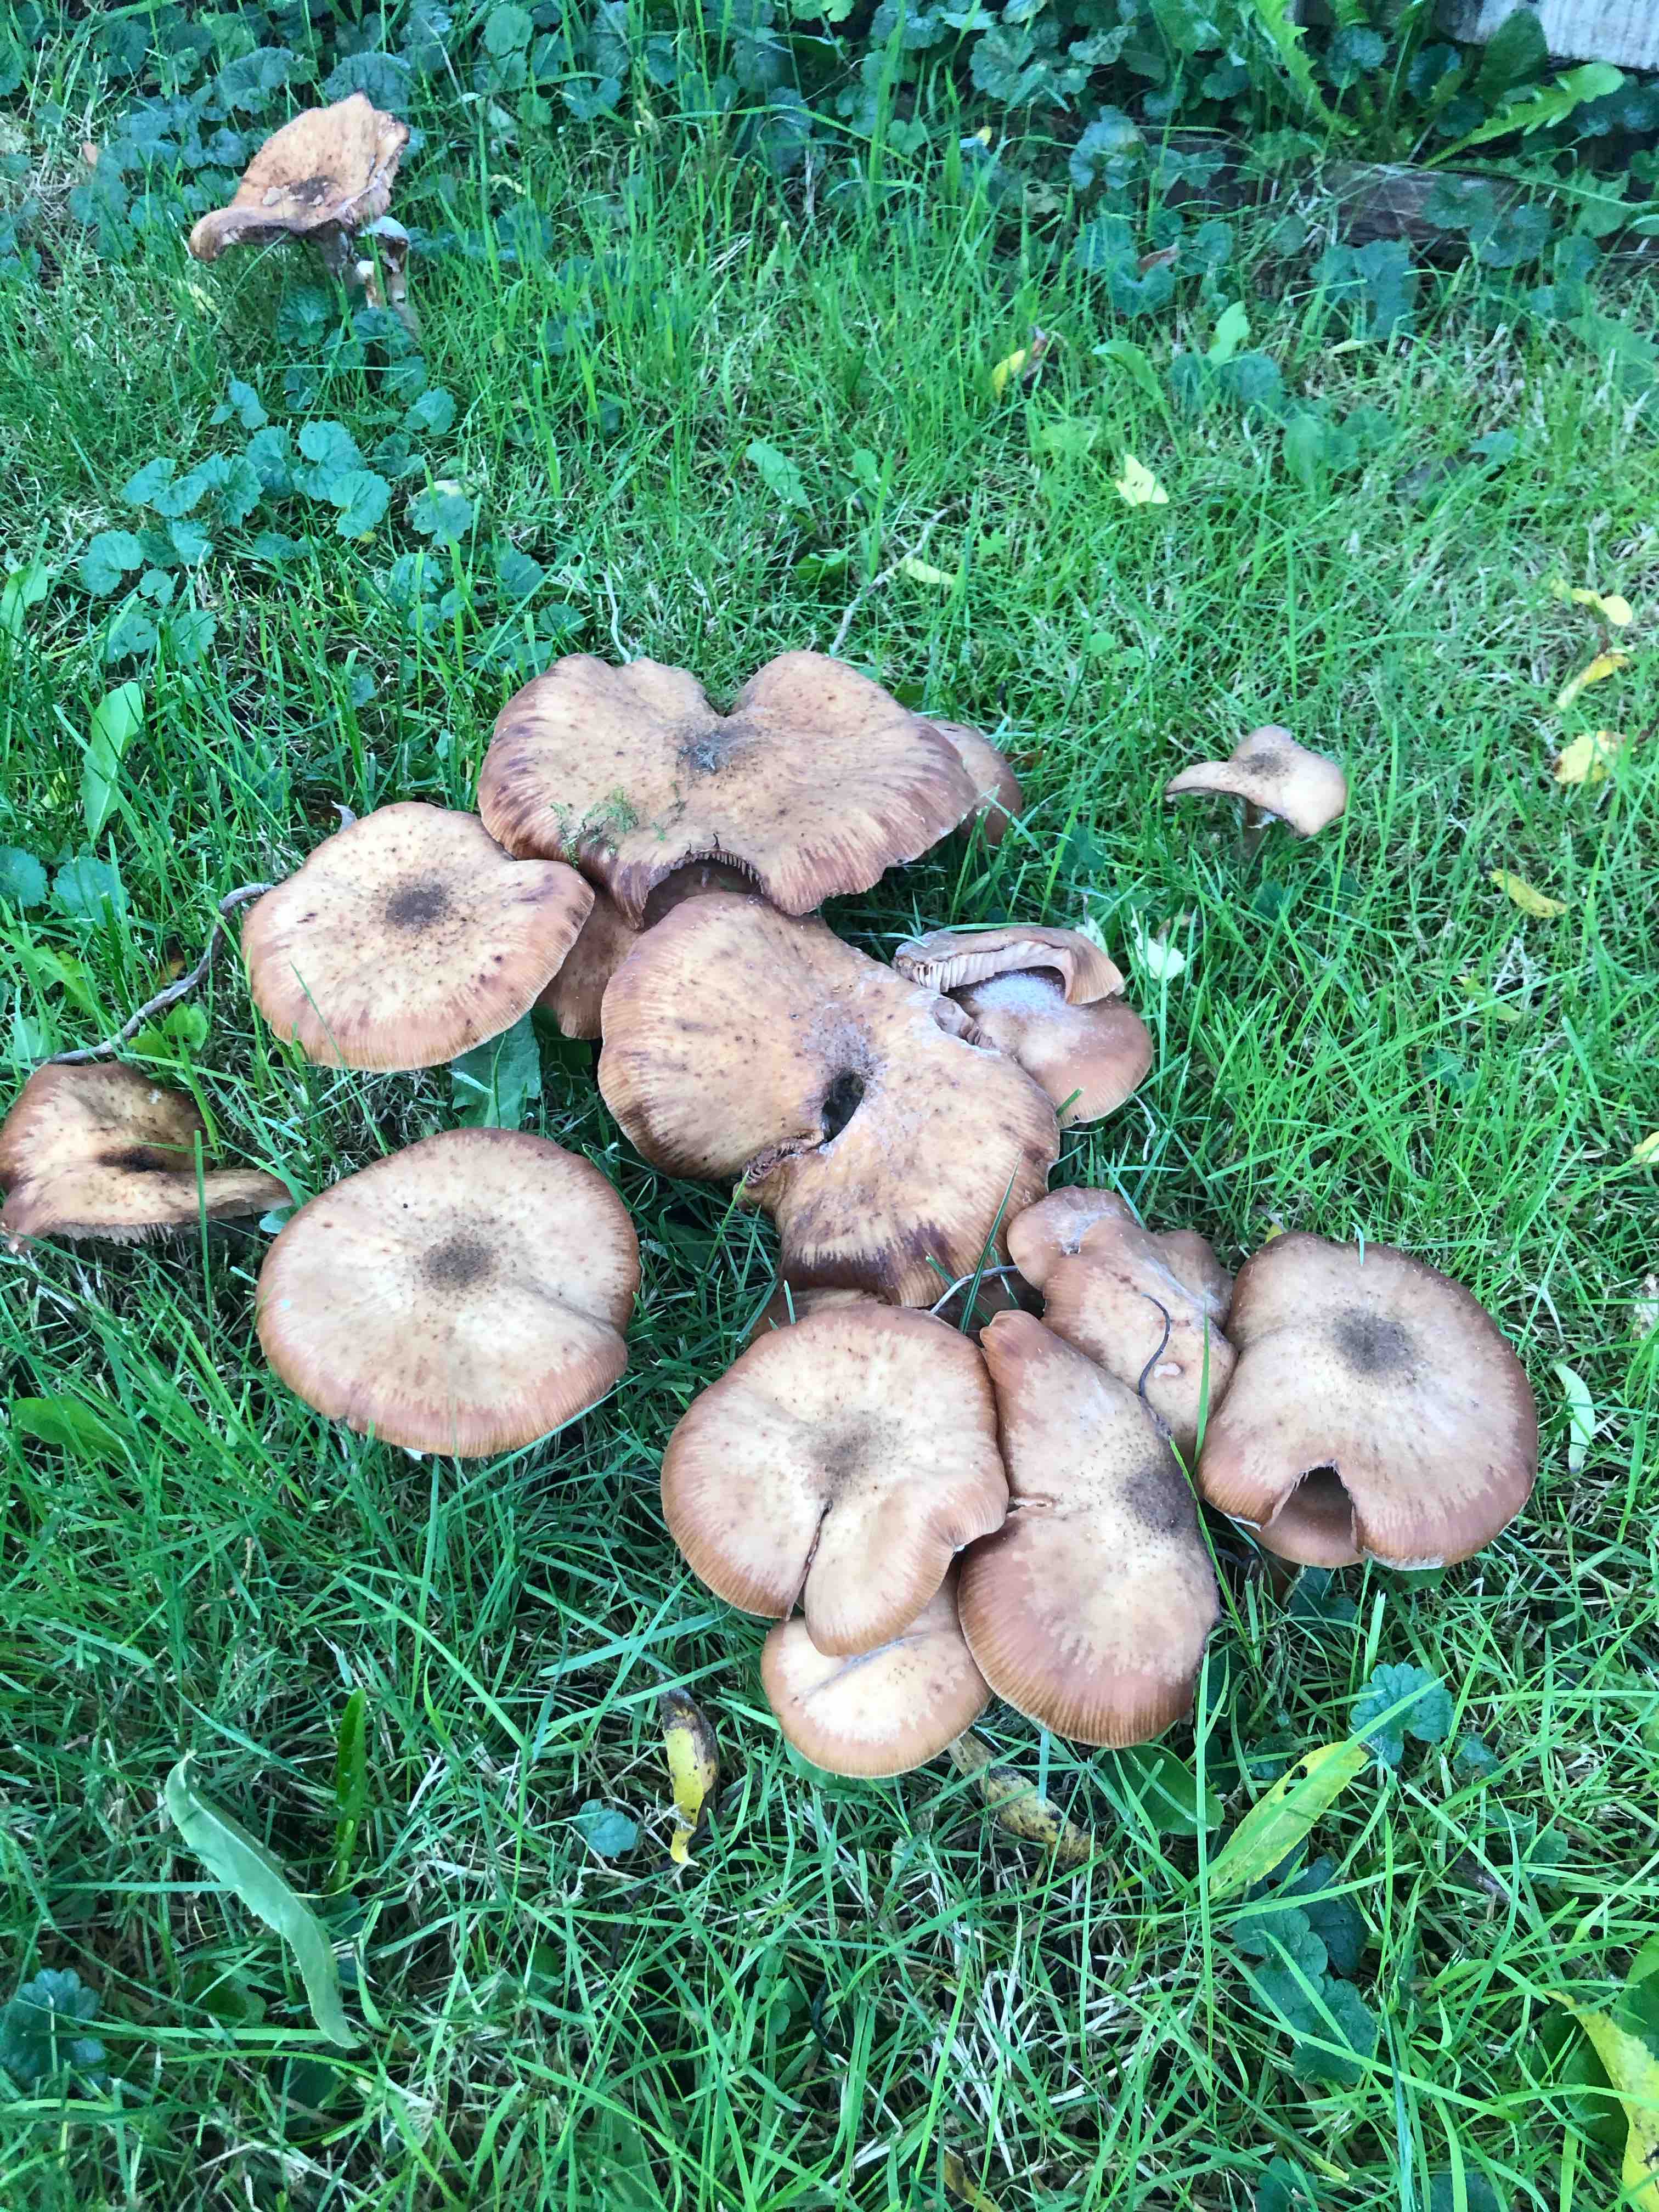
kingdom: Fungi
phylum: Basidiomycota
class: Agaricomycetes
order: Agaricales
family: Physalacriaceae
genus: Armillaria
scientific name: Armillaria
